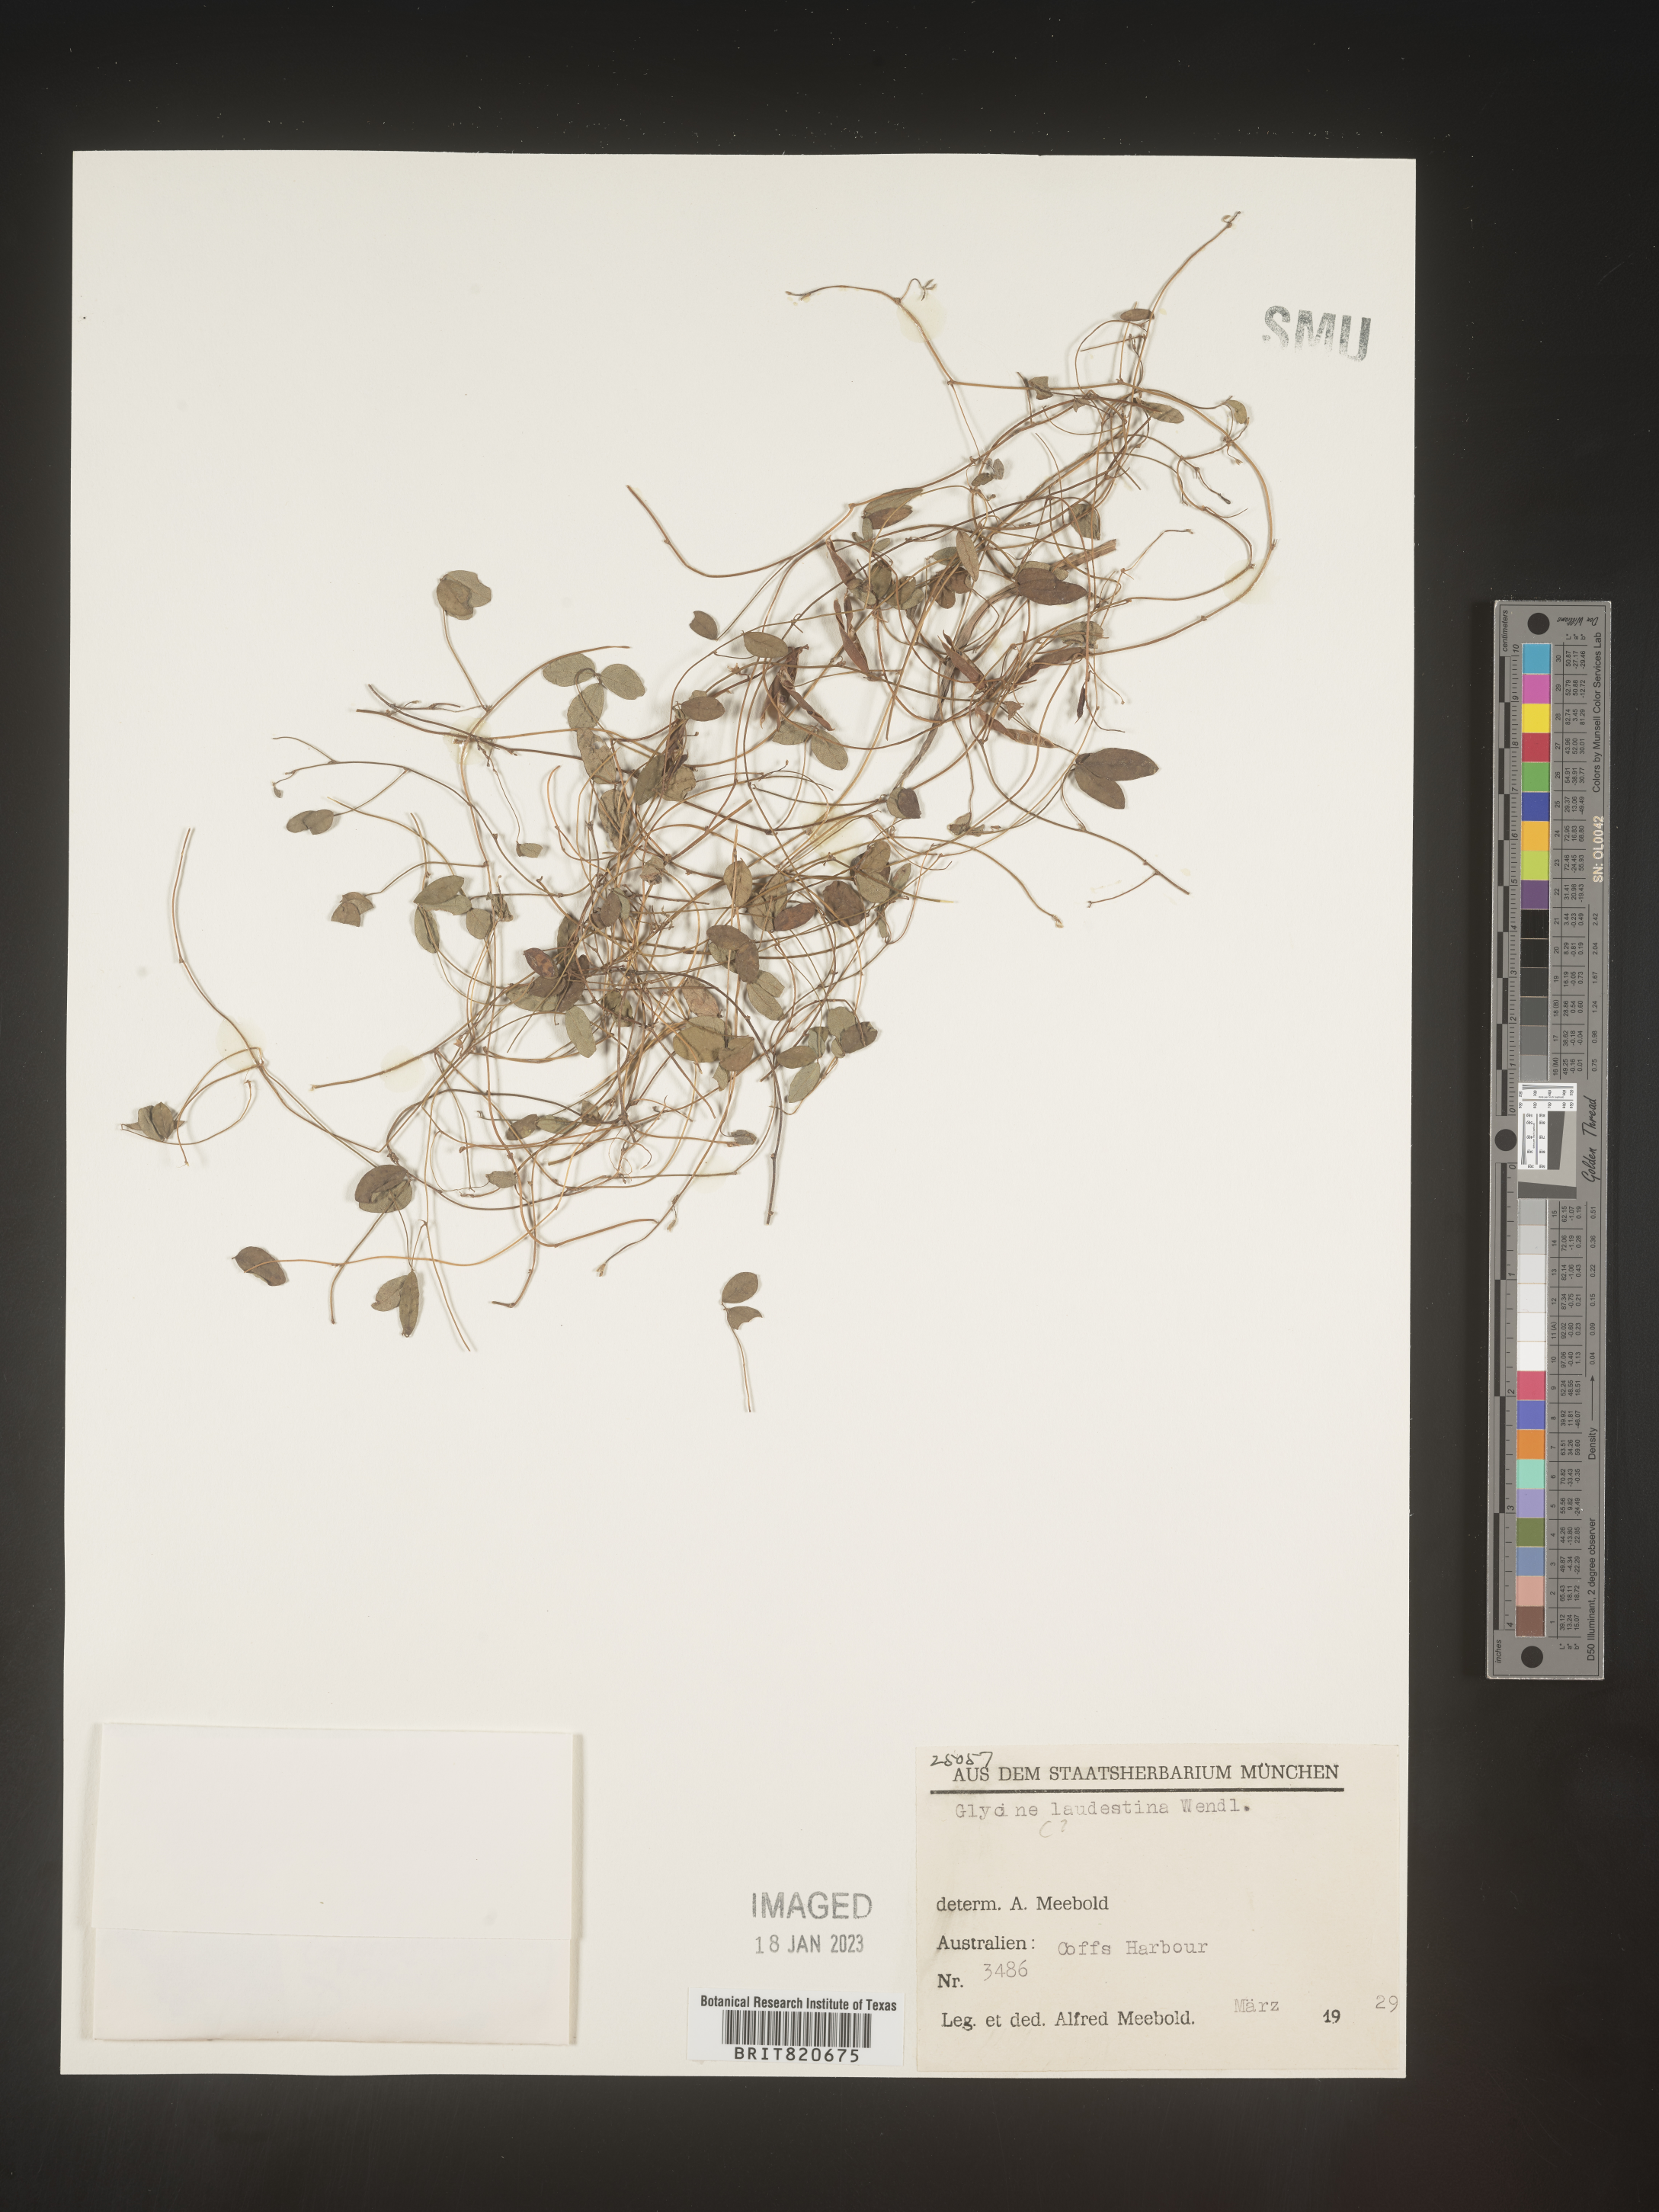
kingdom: Plantae
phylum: Tracheophyta
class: Magnoliopsida
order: Fabales
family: Fabaceae
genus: Glycine
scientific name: Glycine
